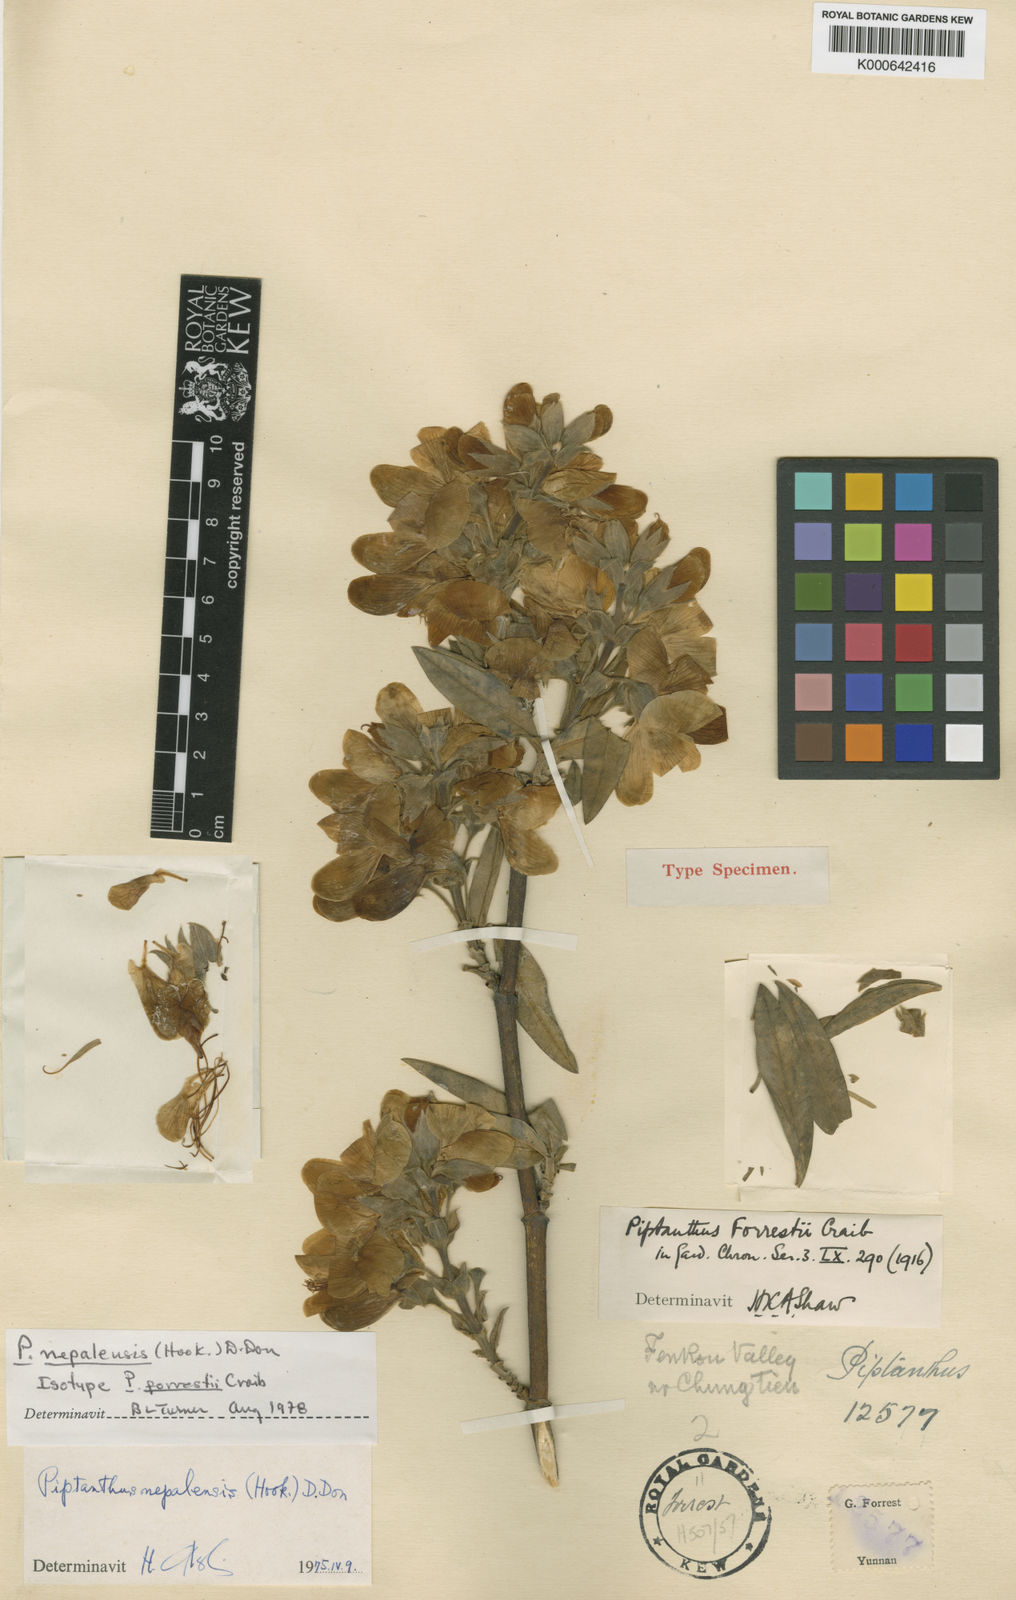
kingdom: Plantae
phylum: Tracheophyta
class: Magnoliopsida
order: Fabales
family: Fabaceae
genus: Piptanthus
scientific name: Piptanthus
